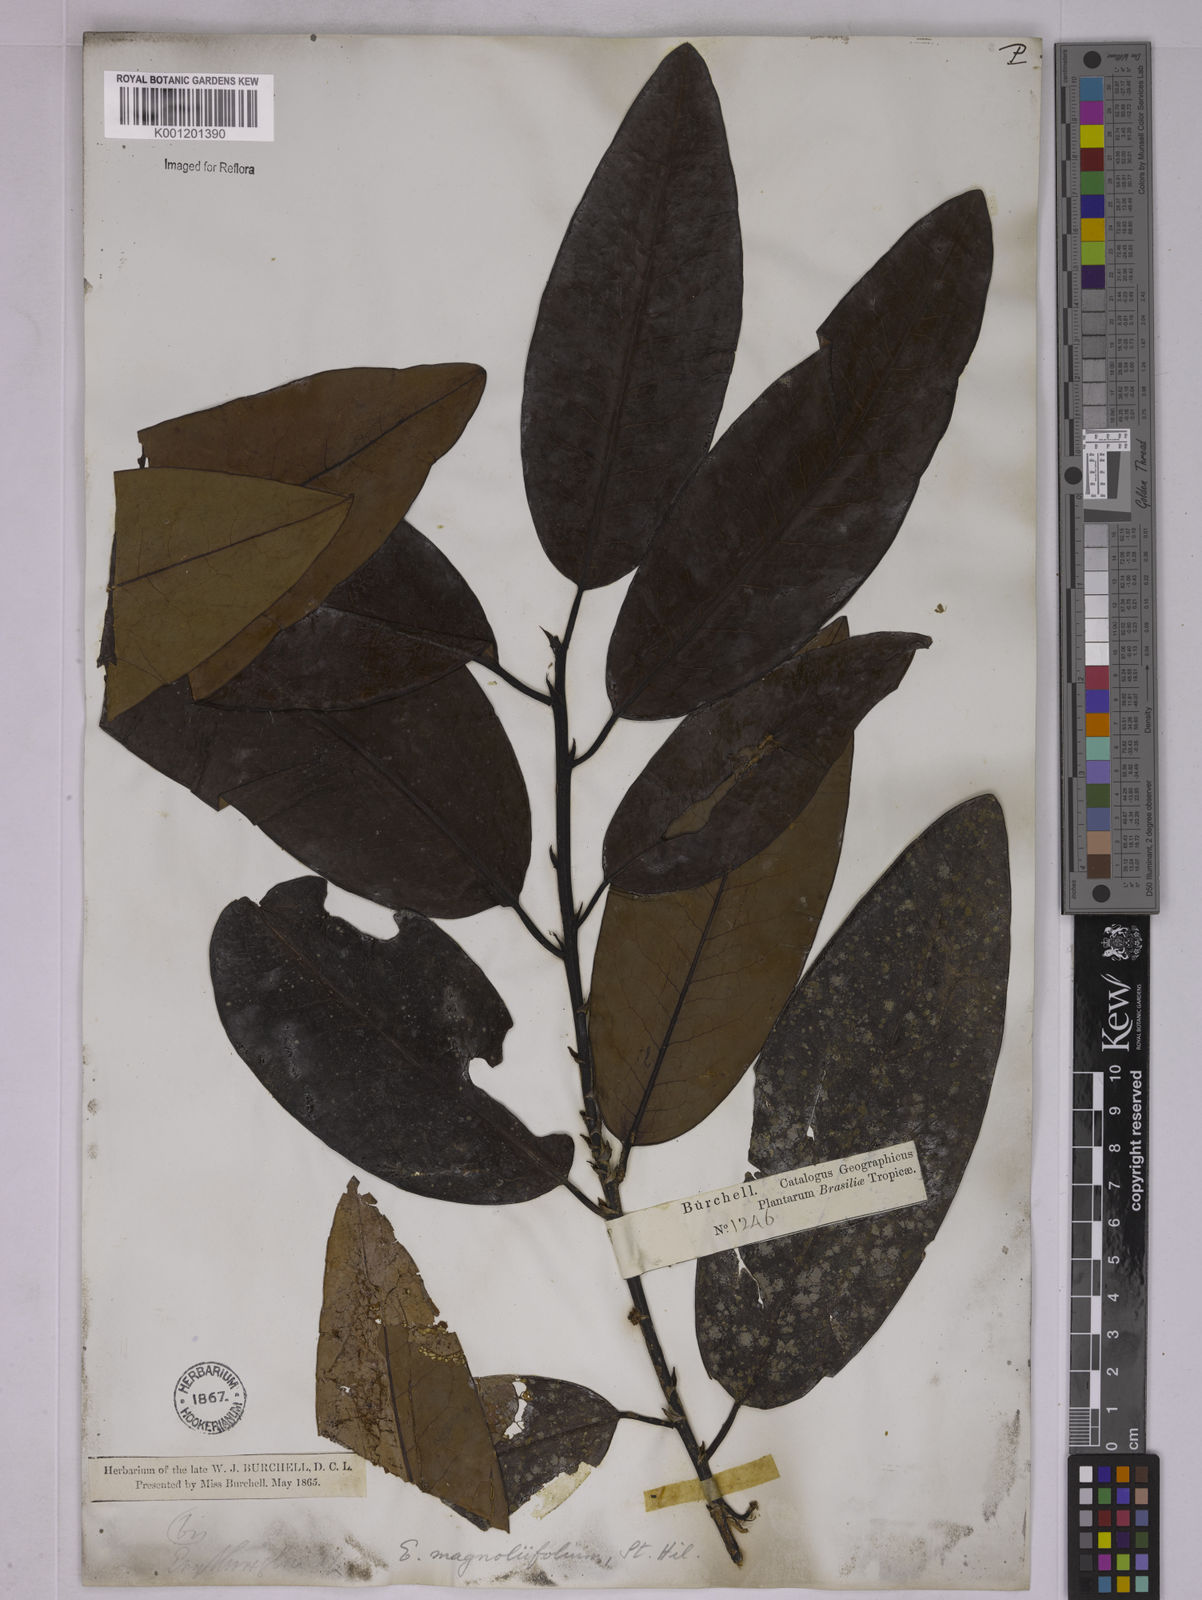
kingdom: Plantae
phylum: Tracheophyta
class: Magnoliopsida
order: Malpighiales
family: Erythroxylaceae
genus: Erythroxylum
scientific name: Erythroxylum magnoliifolium
